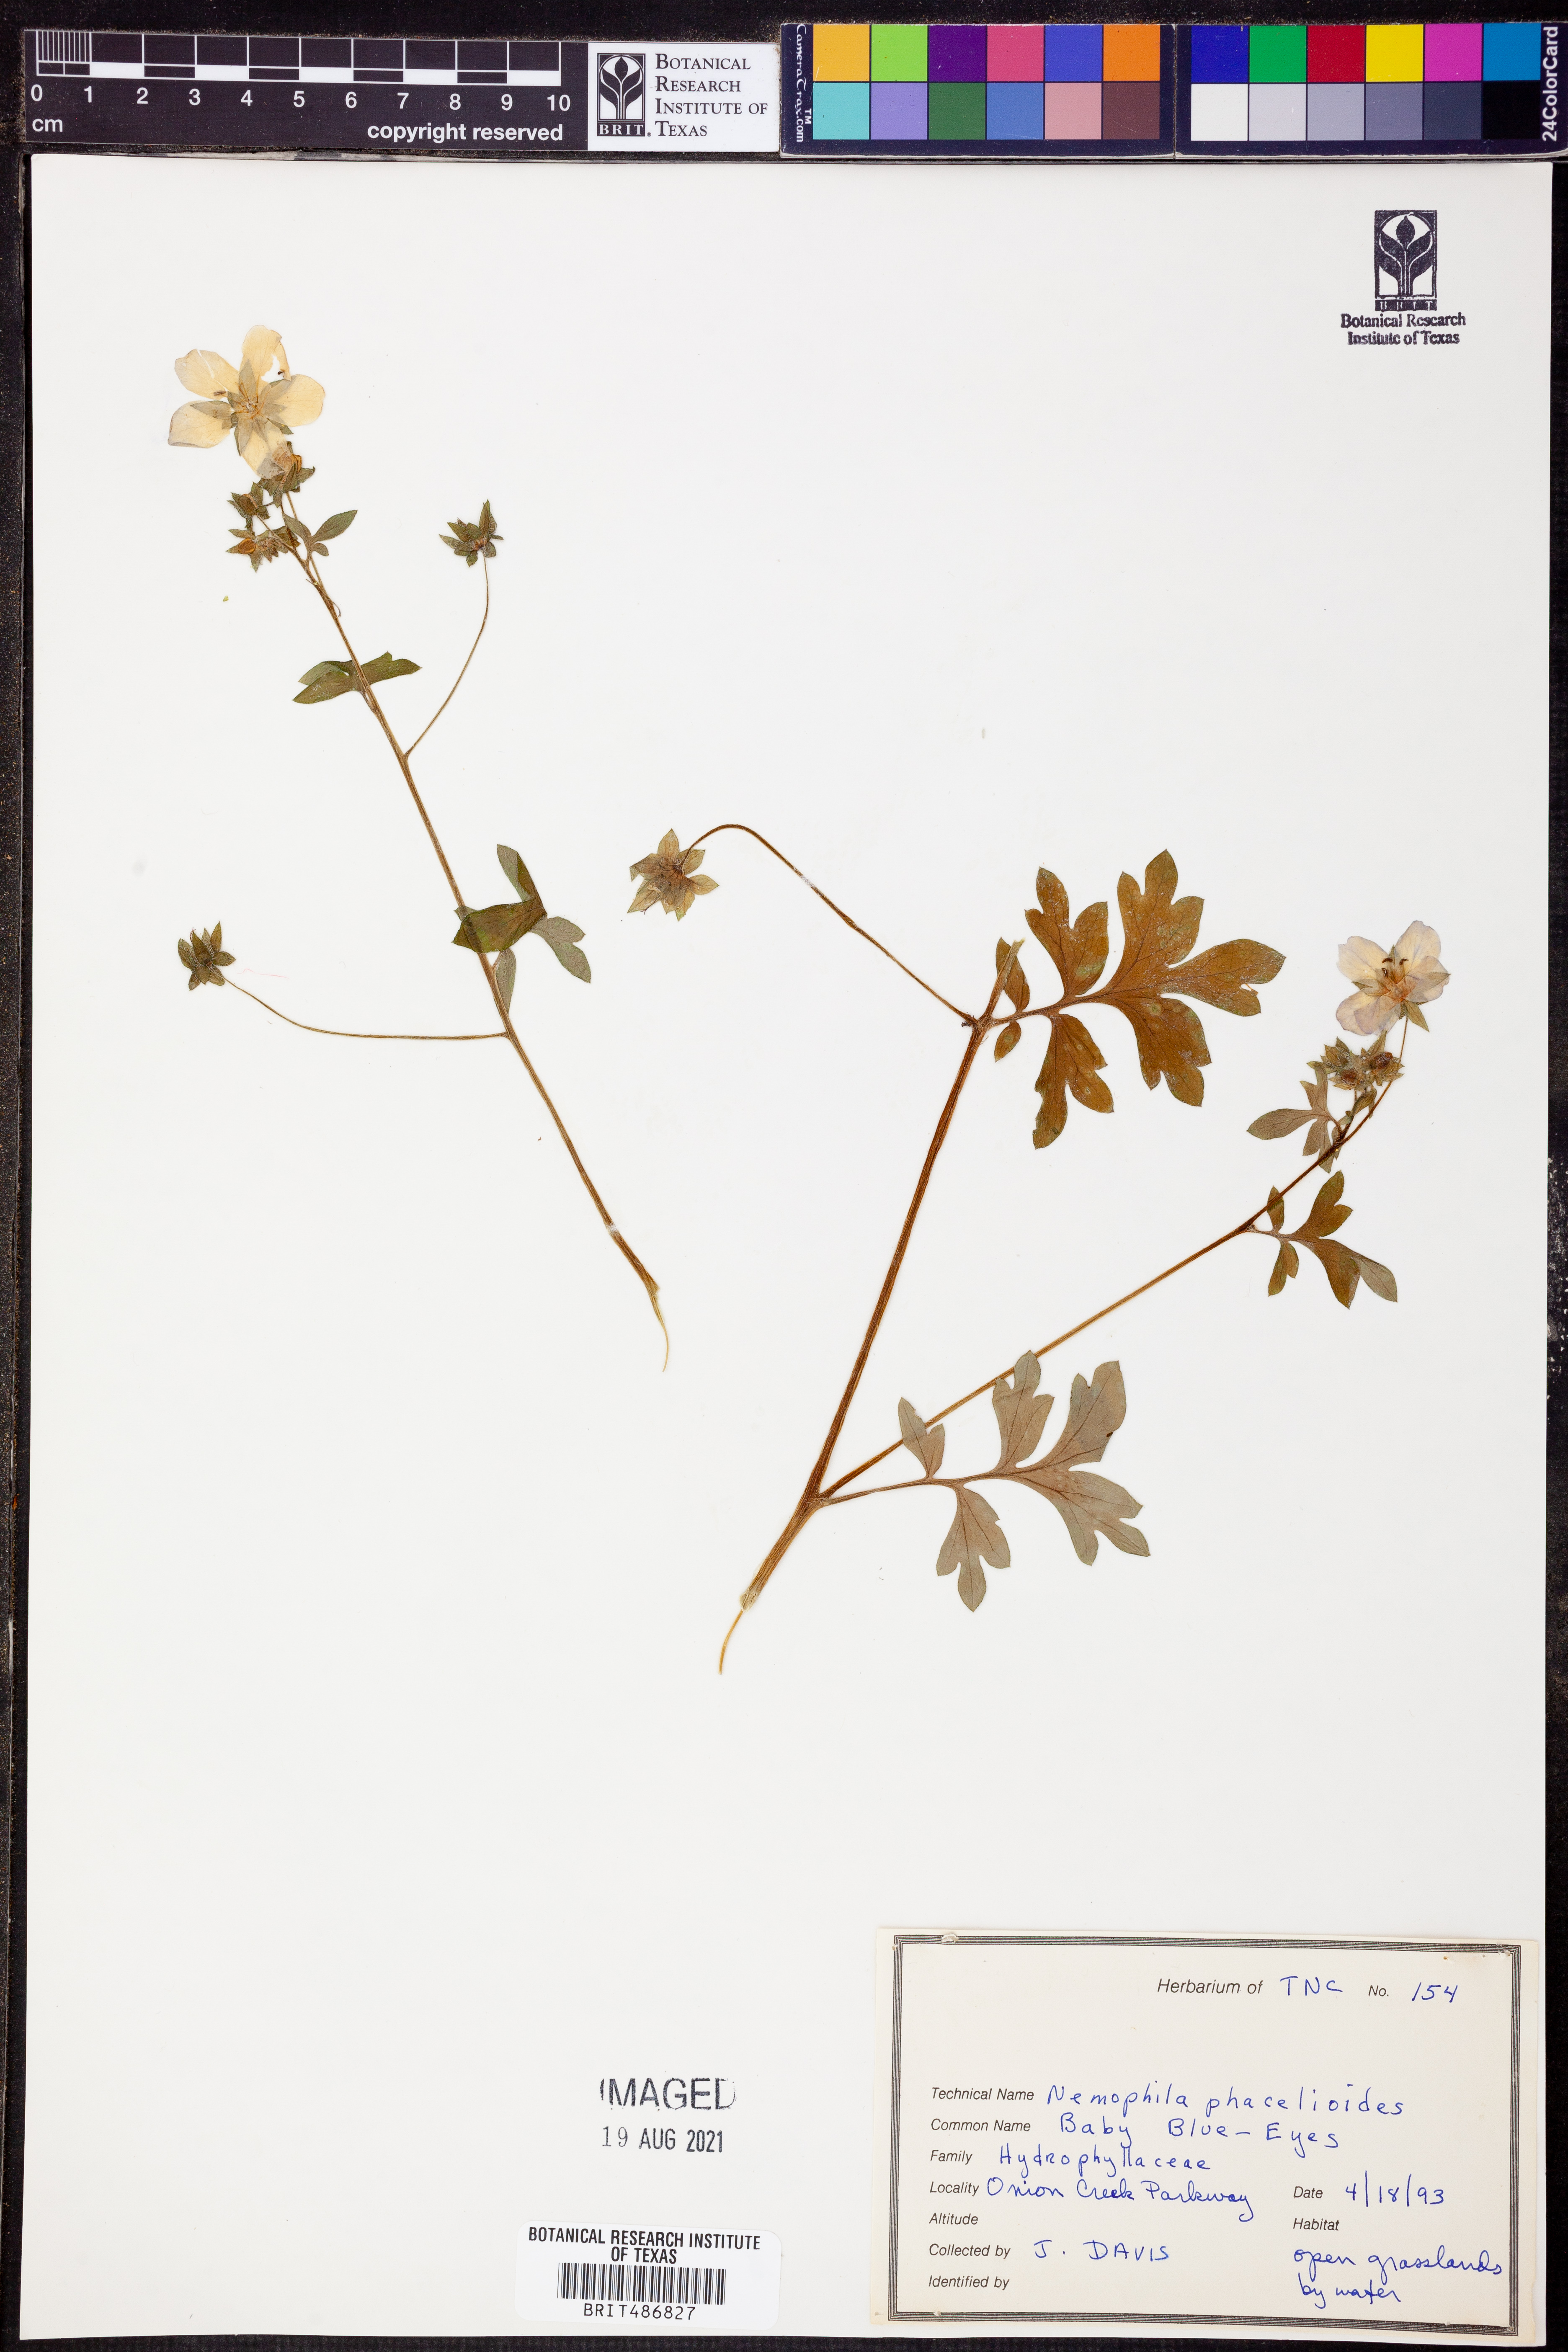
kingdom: Plantae
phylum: Tracheophyta
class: Magnoliopsida
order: Boraginales
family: Hydrophyllaceae
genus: Nemophila
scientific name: Nemophila phacelioides
